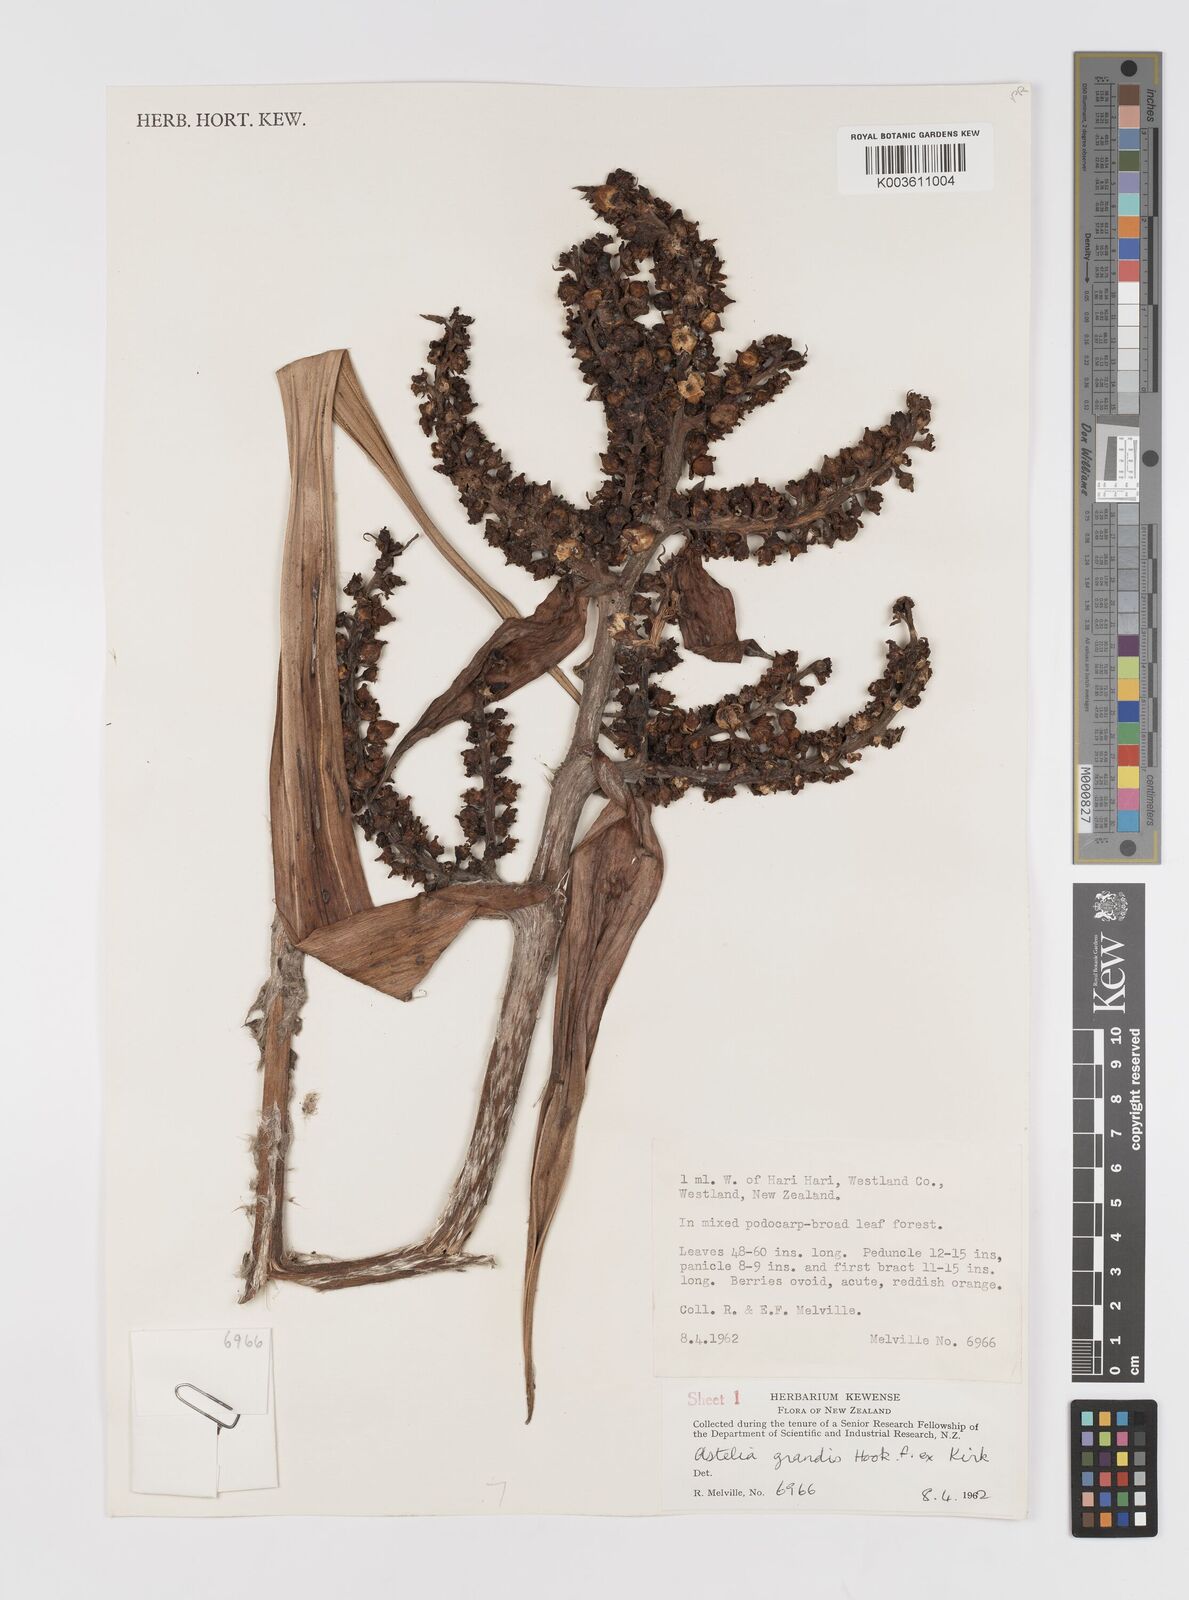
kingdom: Plantae
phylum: Tracheophyta
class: Liliopsida
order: Asparagales
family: Asteliaceae
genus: Astelia
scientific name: Astelia grandis
